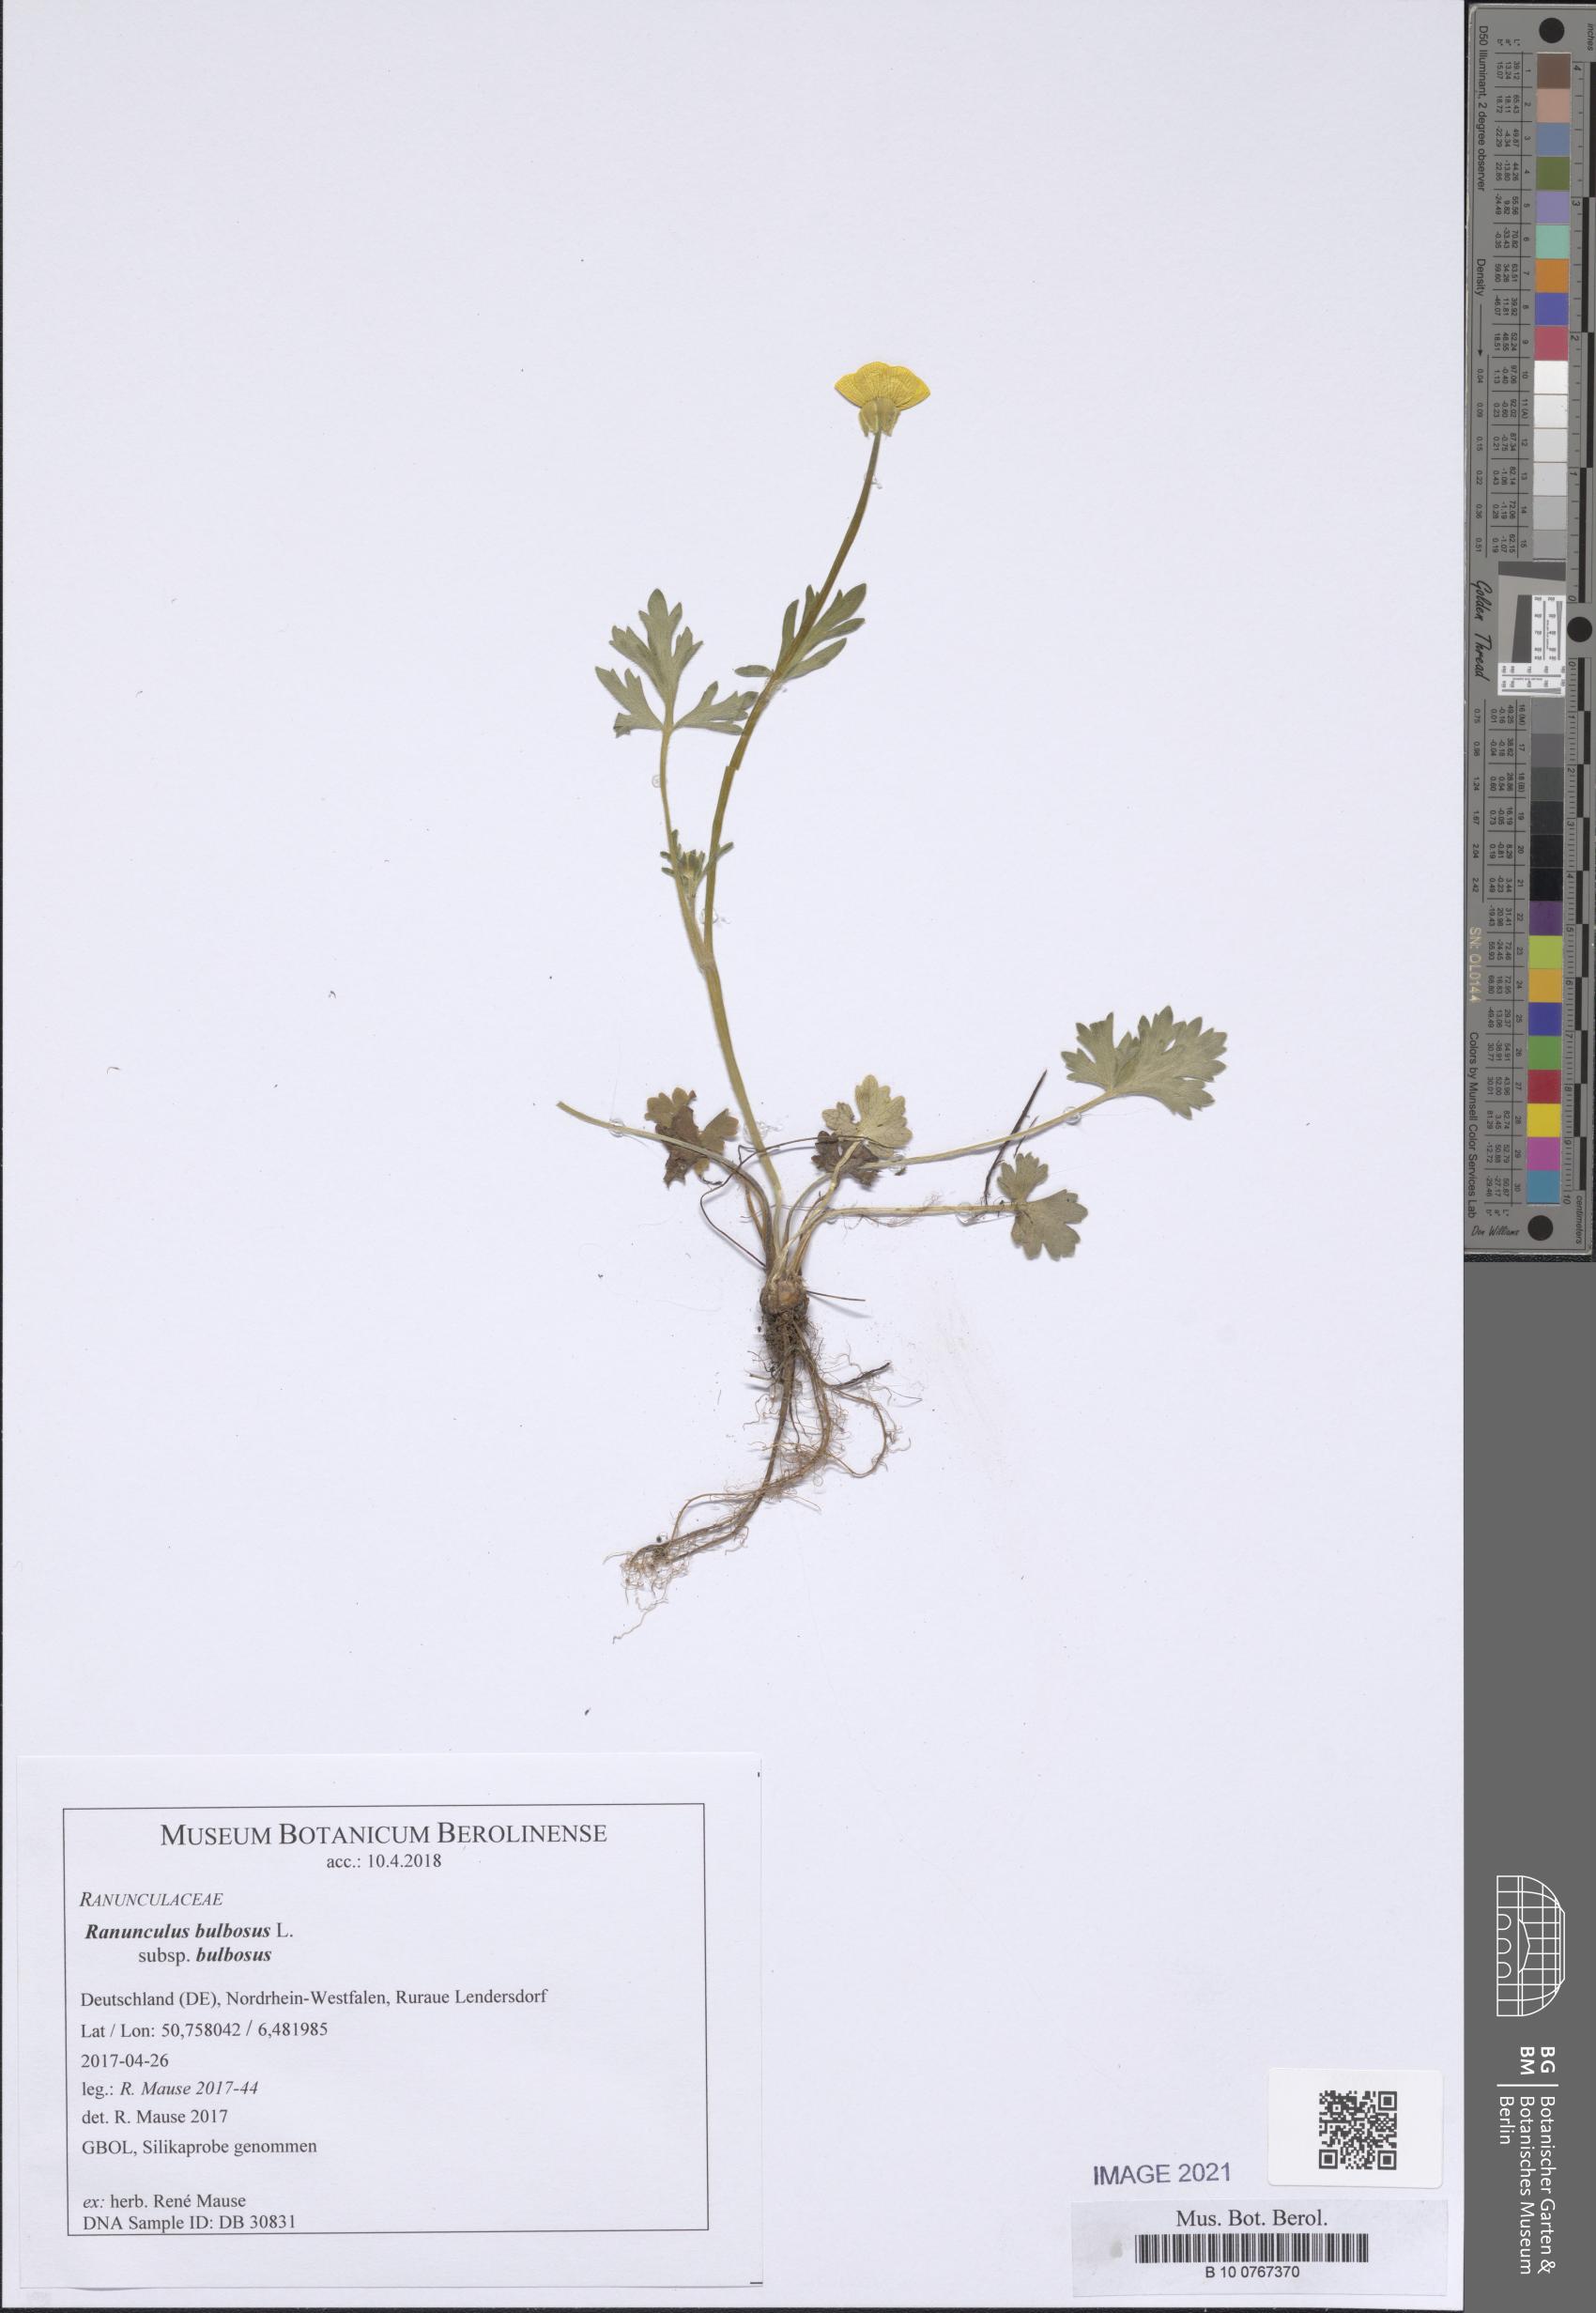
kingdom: Plantae
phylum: Tracheophyta
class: Magnoliopsida
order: Ranunculales
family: Ranunculaceae
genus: Ranunculus
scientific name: Ranunculus bulbosus
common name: Bulbous buttercup
